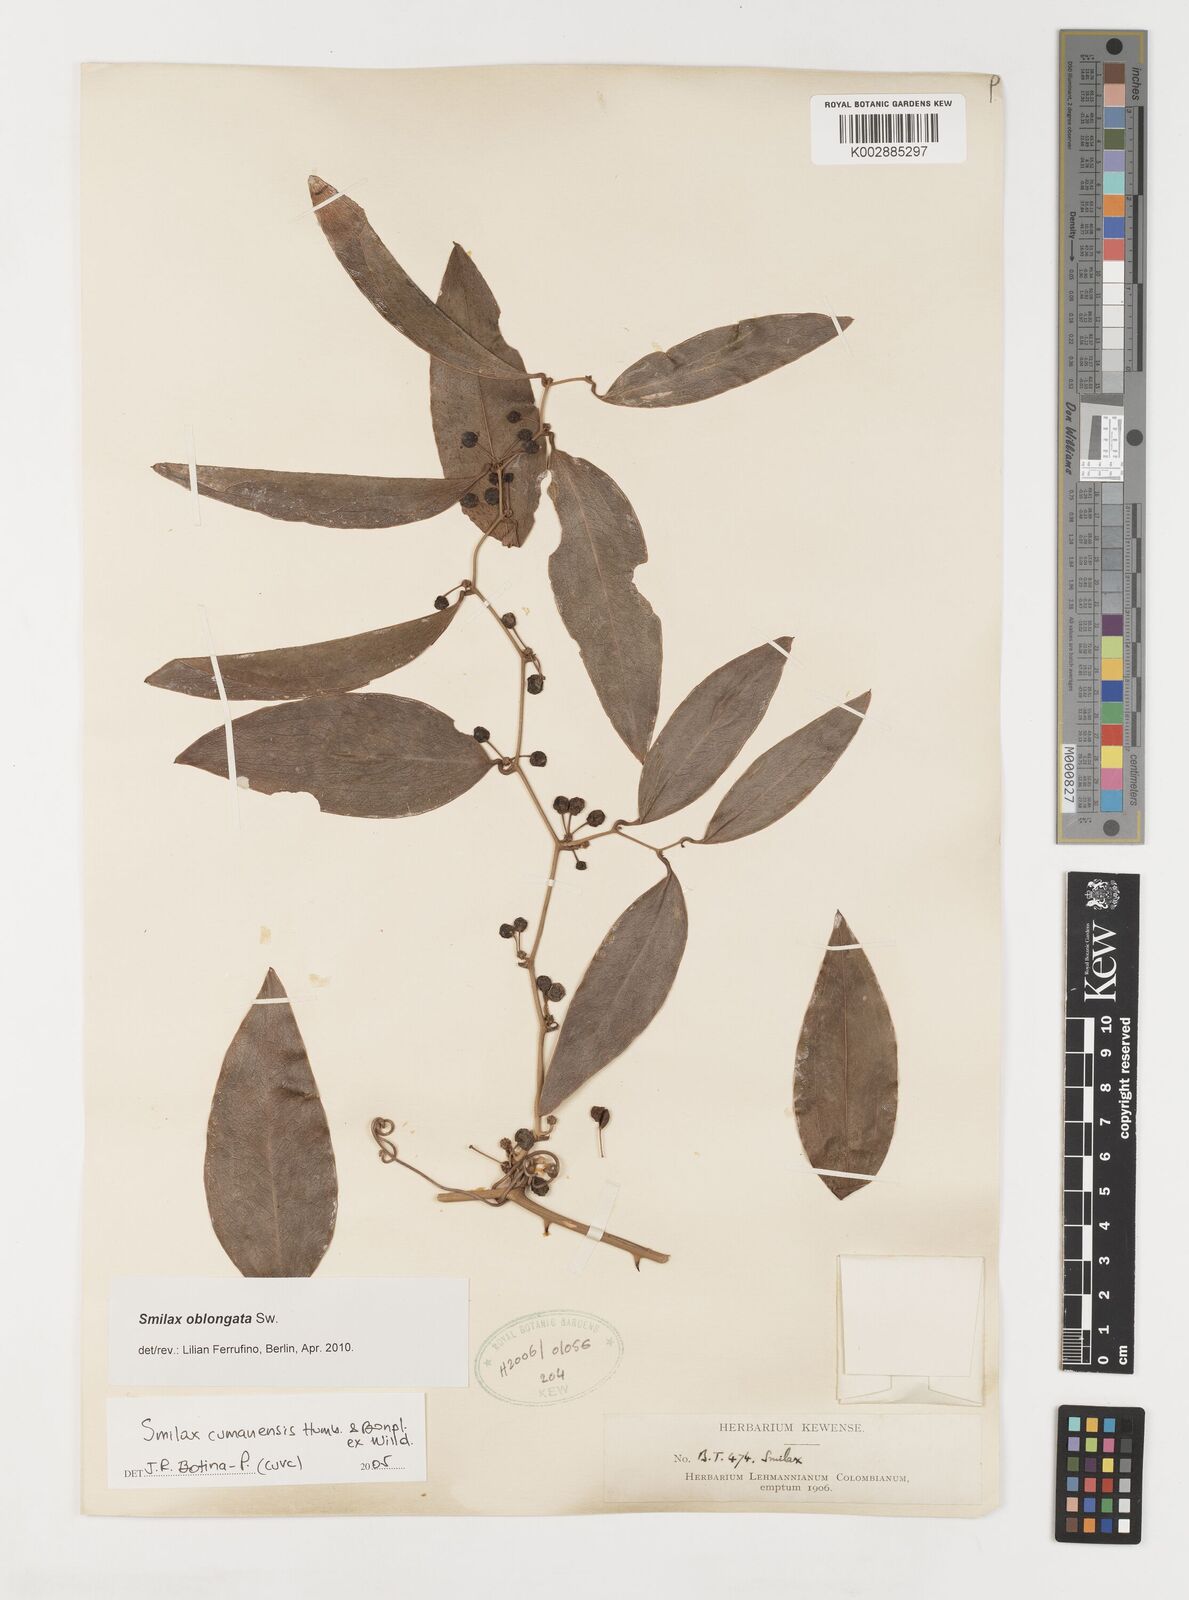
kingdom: Plantae
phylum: Tracheophyta
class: Liliopsida
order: Liliales
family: Smilacaceae
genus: Smilax
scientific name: Smilax oblongata
